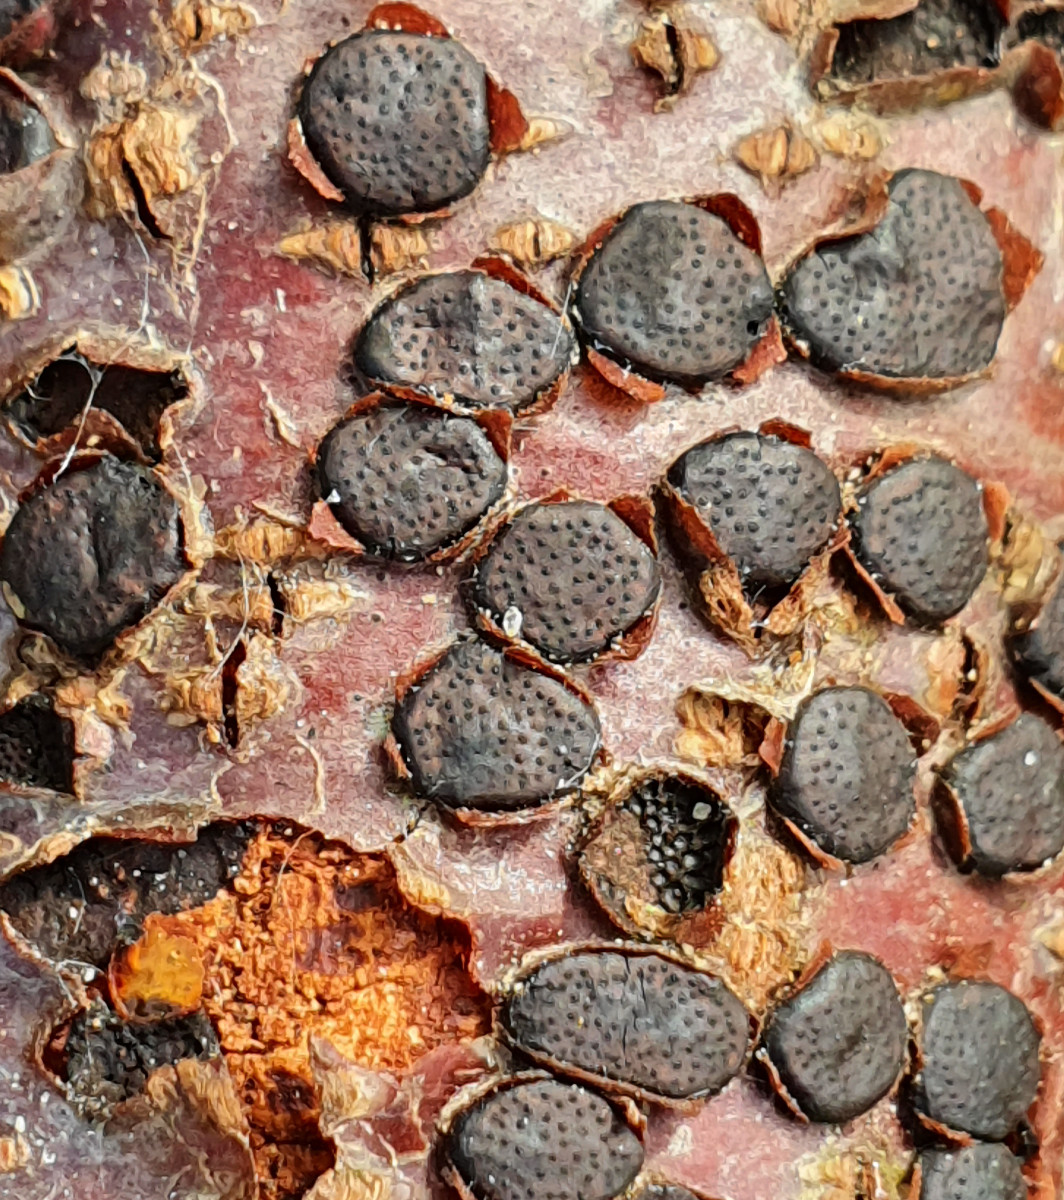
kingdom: Fungi
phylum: Ascomycota
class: Sordariomycetes
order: Xylariales
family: Diatrypaceae
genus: Diatrype
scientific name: Diatrype disciformis
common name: kant-kulskorpe
